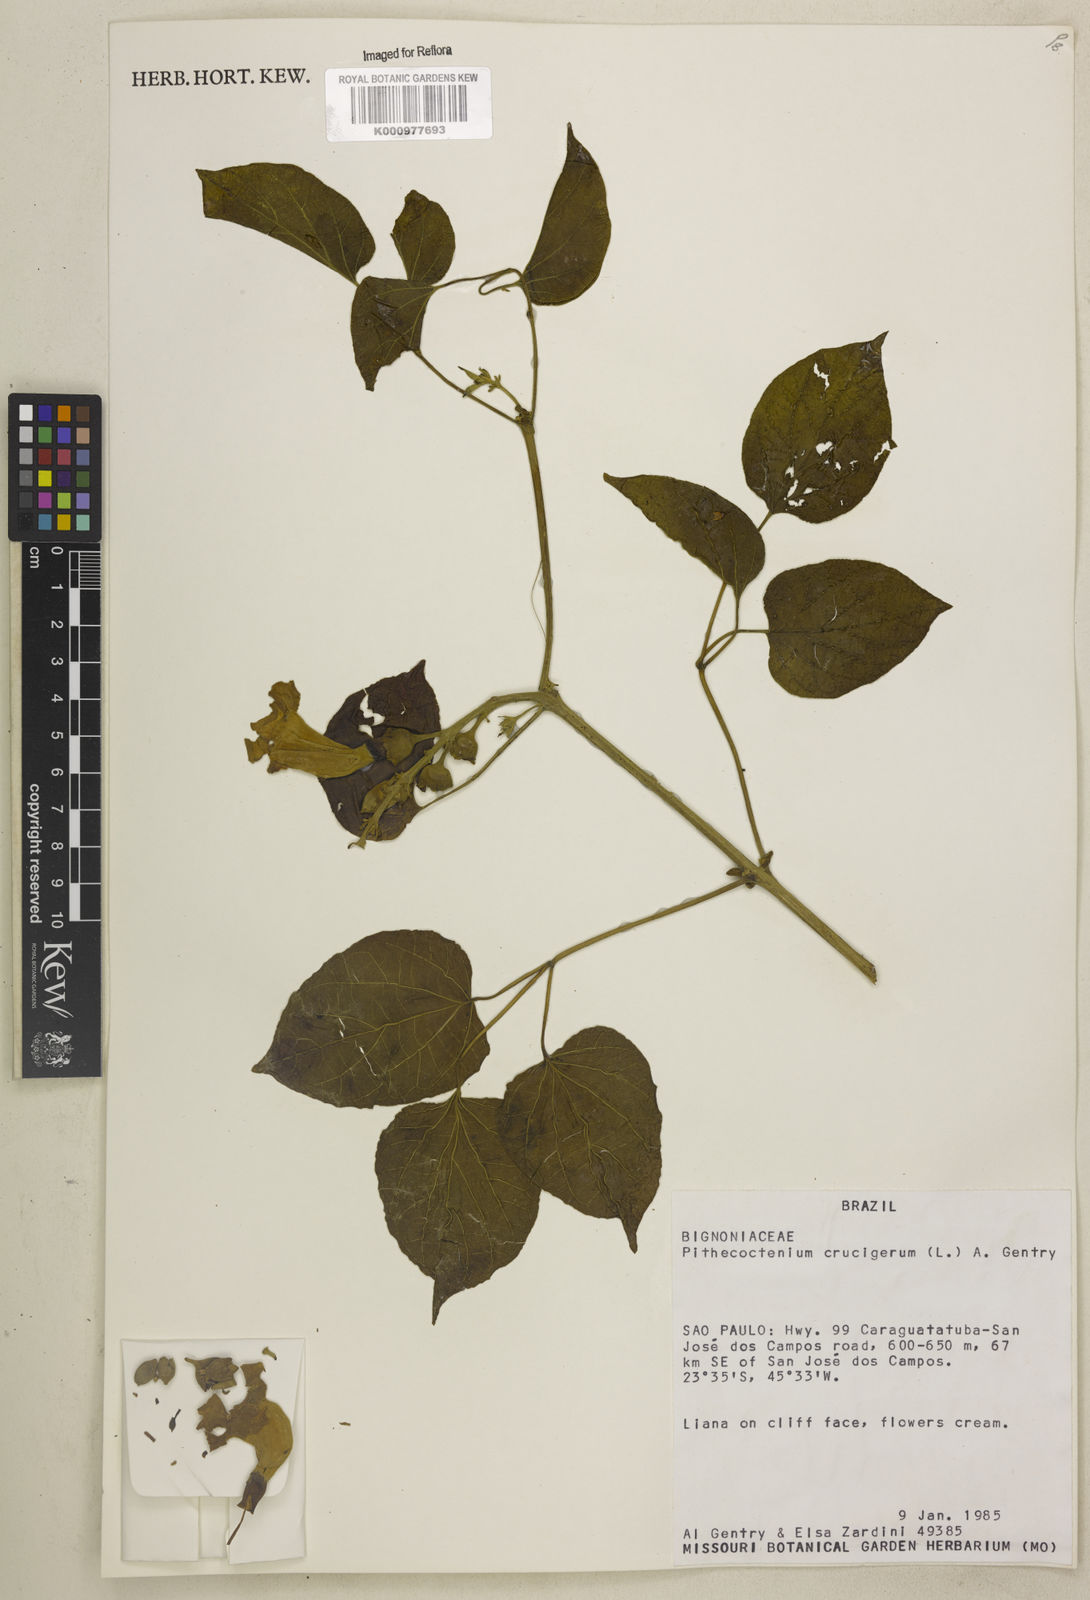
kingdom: Plantae
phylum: Tracheophyta
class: Magnoliopsida
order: Lamiales
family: Bignoniaceae
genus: Amphilophium
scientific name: Amphilophium crucigerum
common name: Monkey comb
